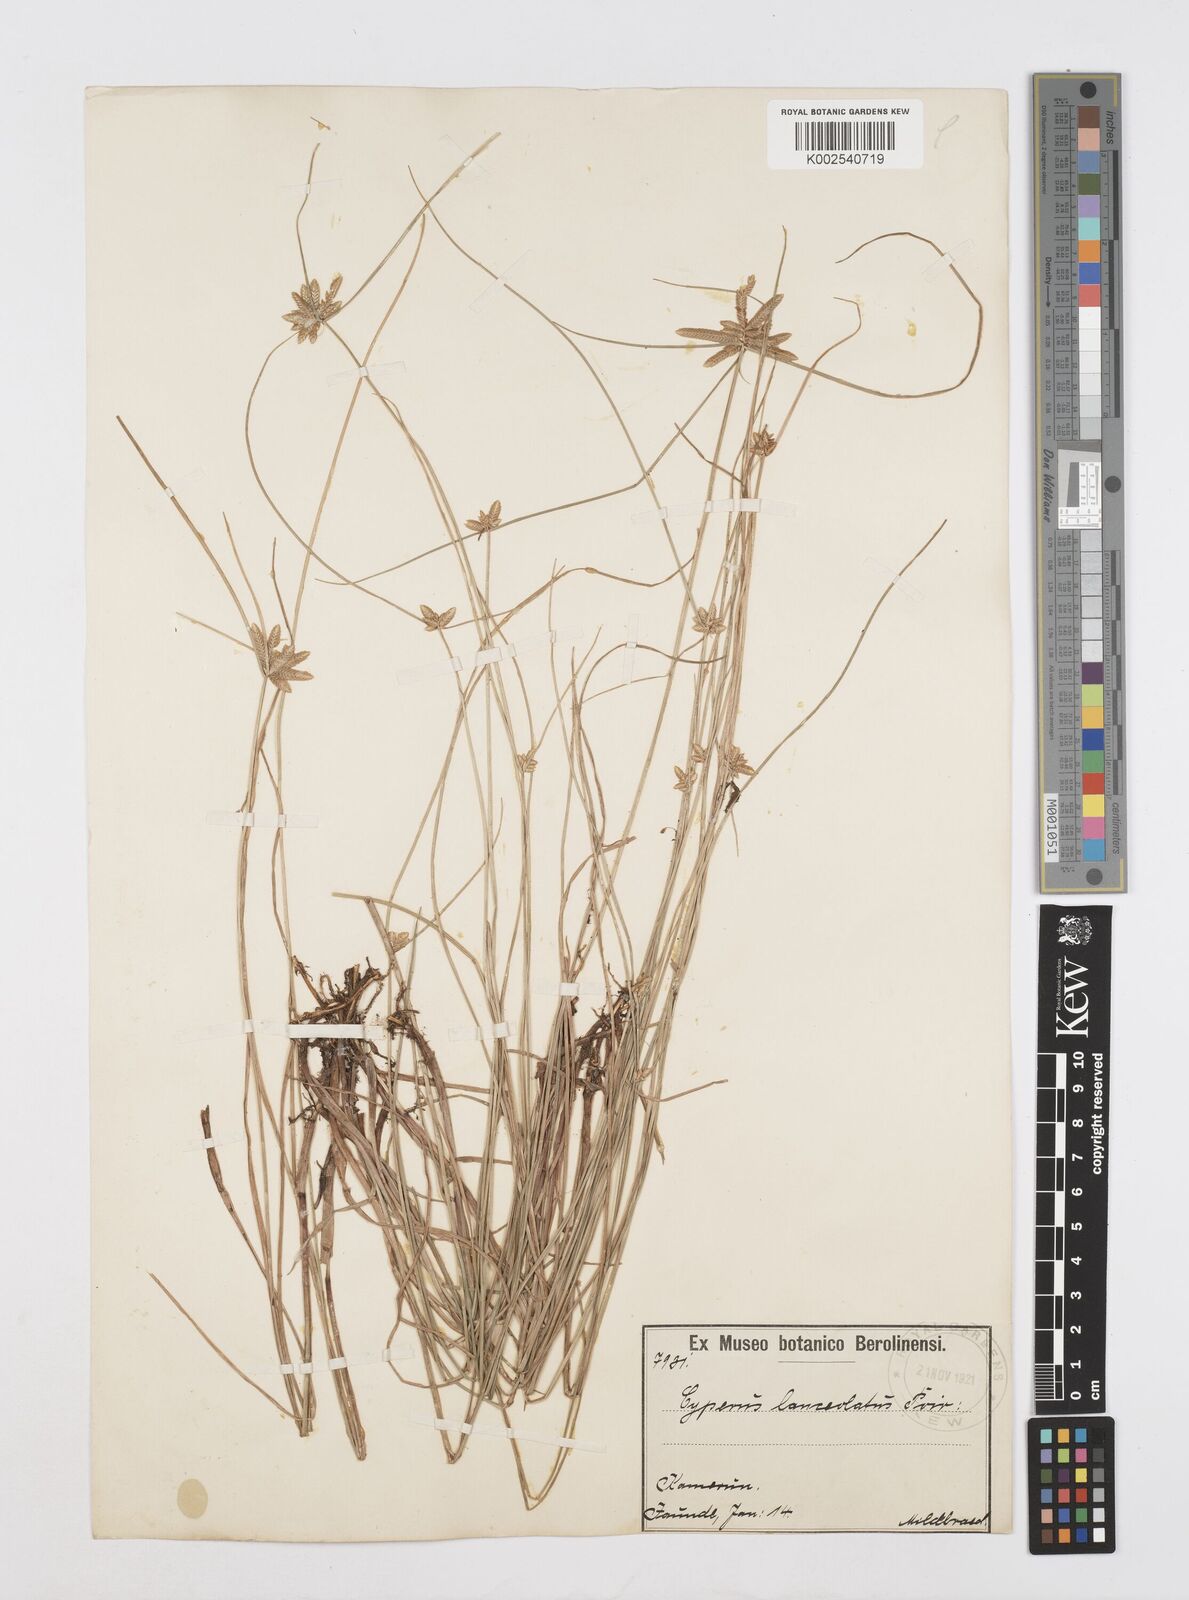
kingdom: Plantae
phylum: Tracheophyta
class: Liliopsida
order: Poales
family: Cyperaceae
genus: Cyperus
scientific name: Cyperus
